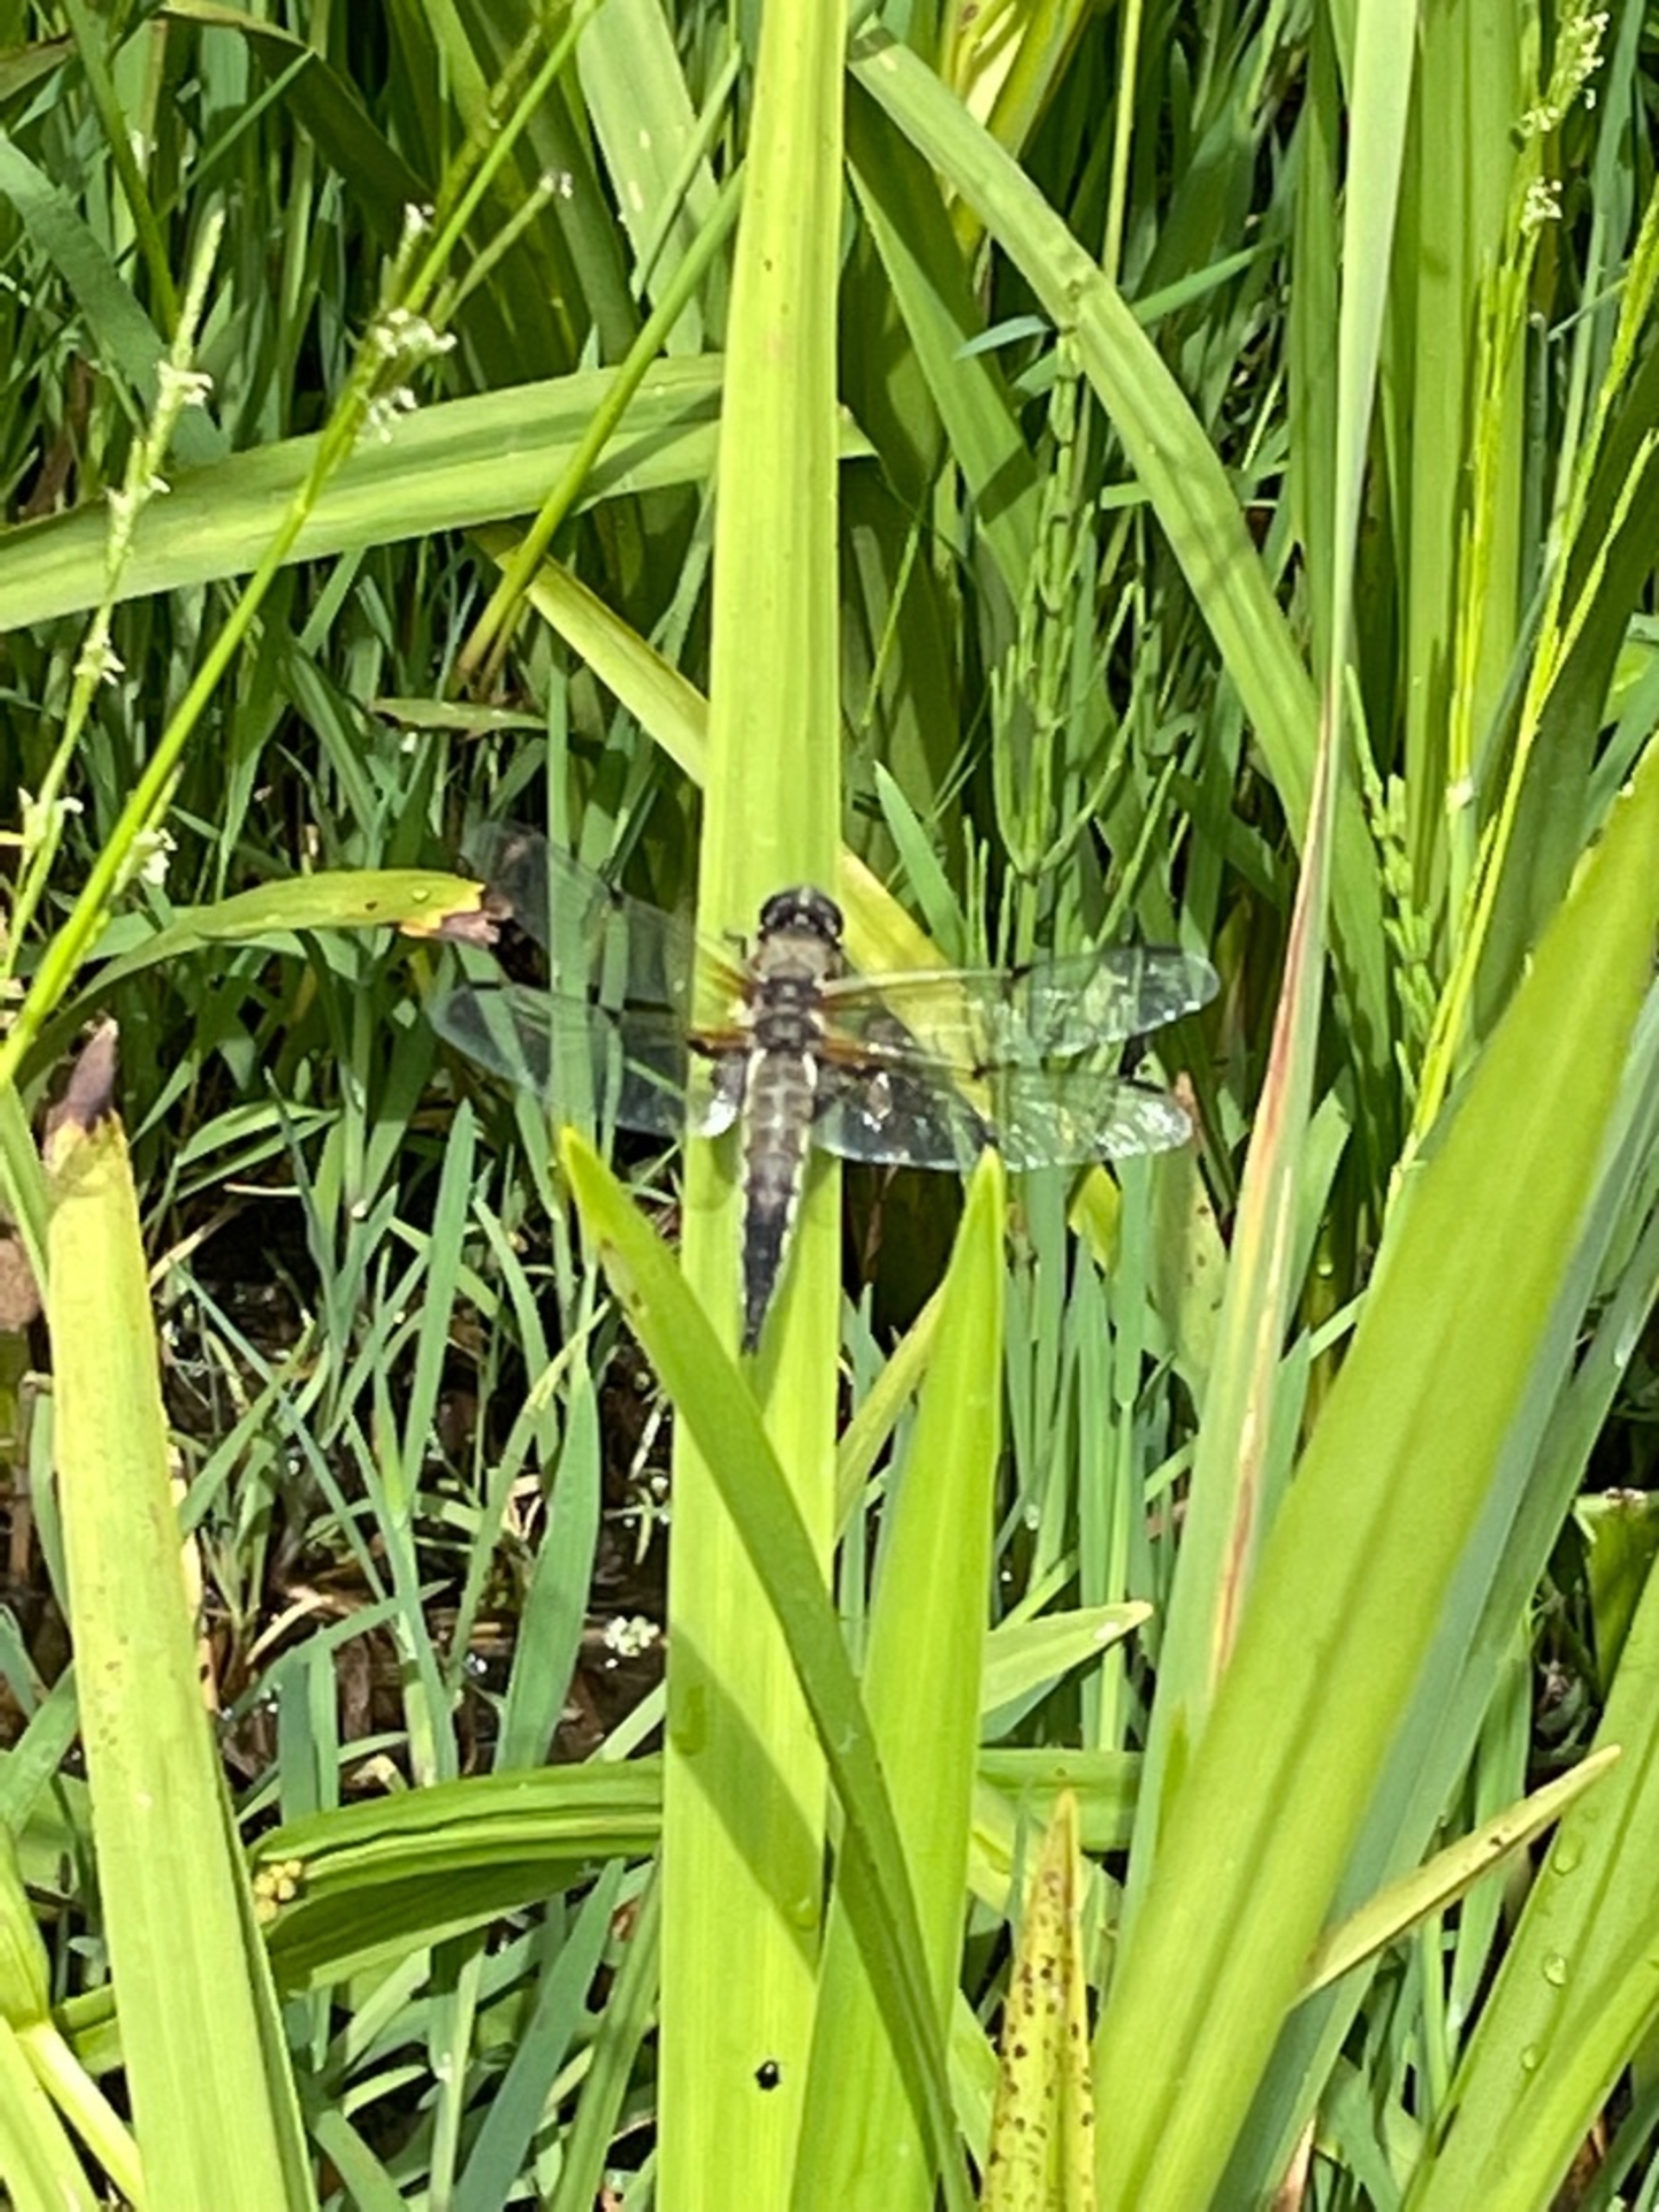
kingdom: Animalia
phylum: Arthropoda
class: Insecta
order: Odonata
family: Libellulidae
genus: Libellula
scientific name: Libellula quadrimaculata
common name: Fireplettet libel
